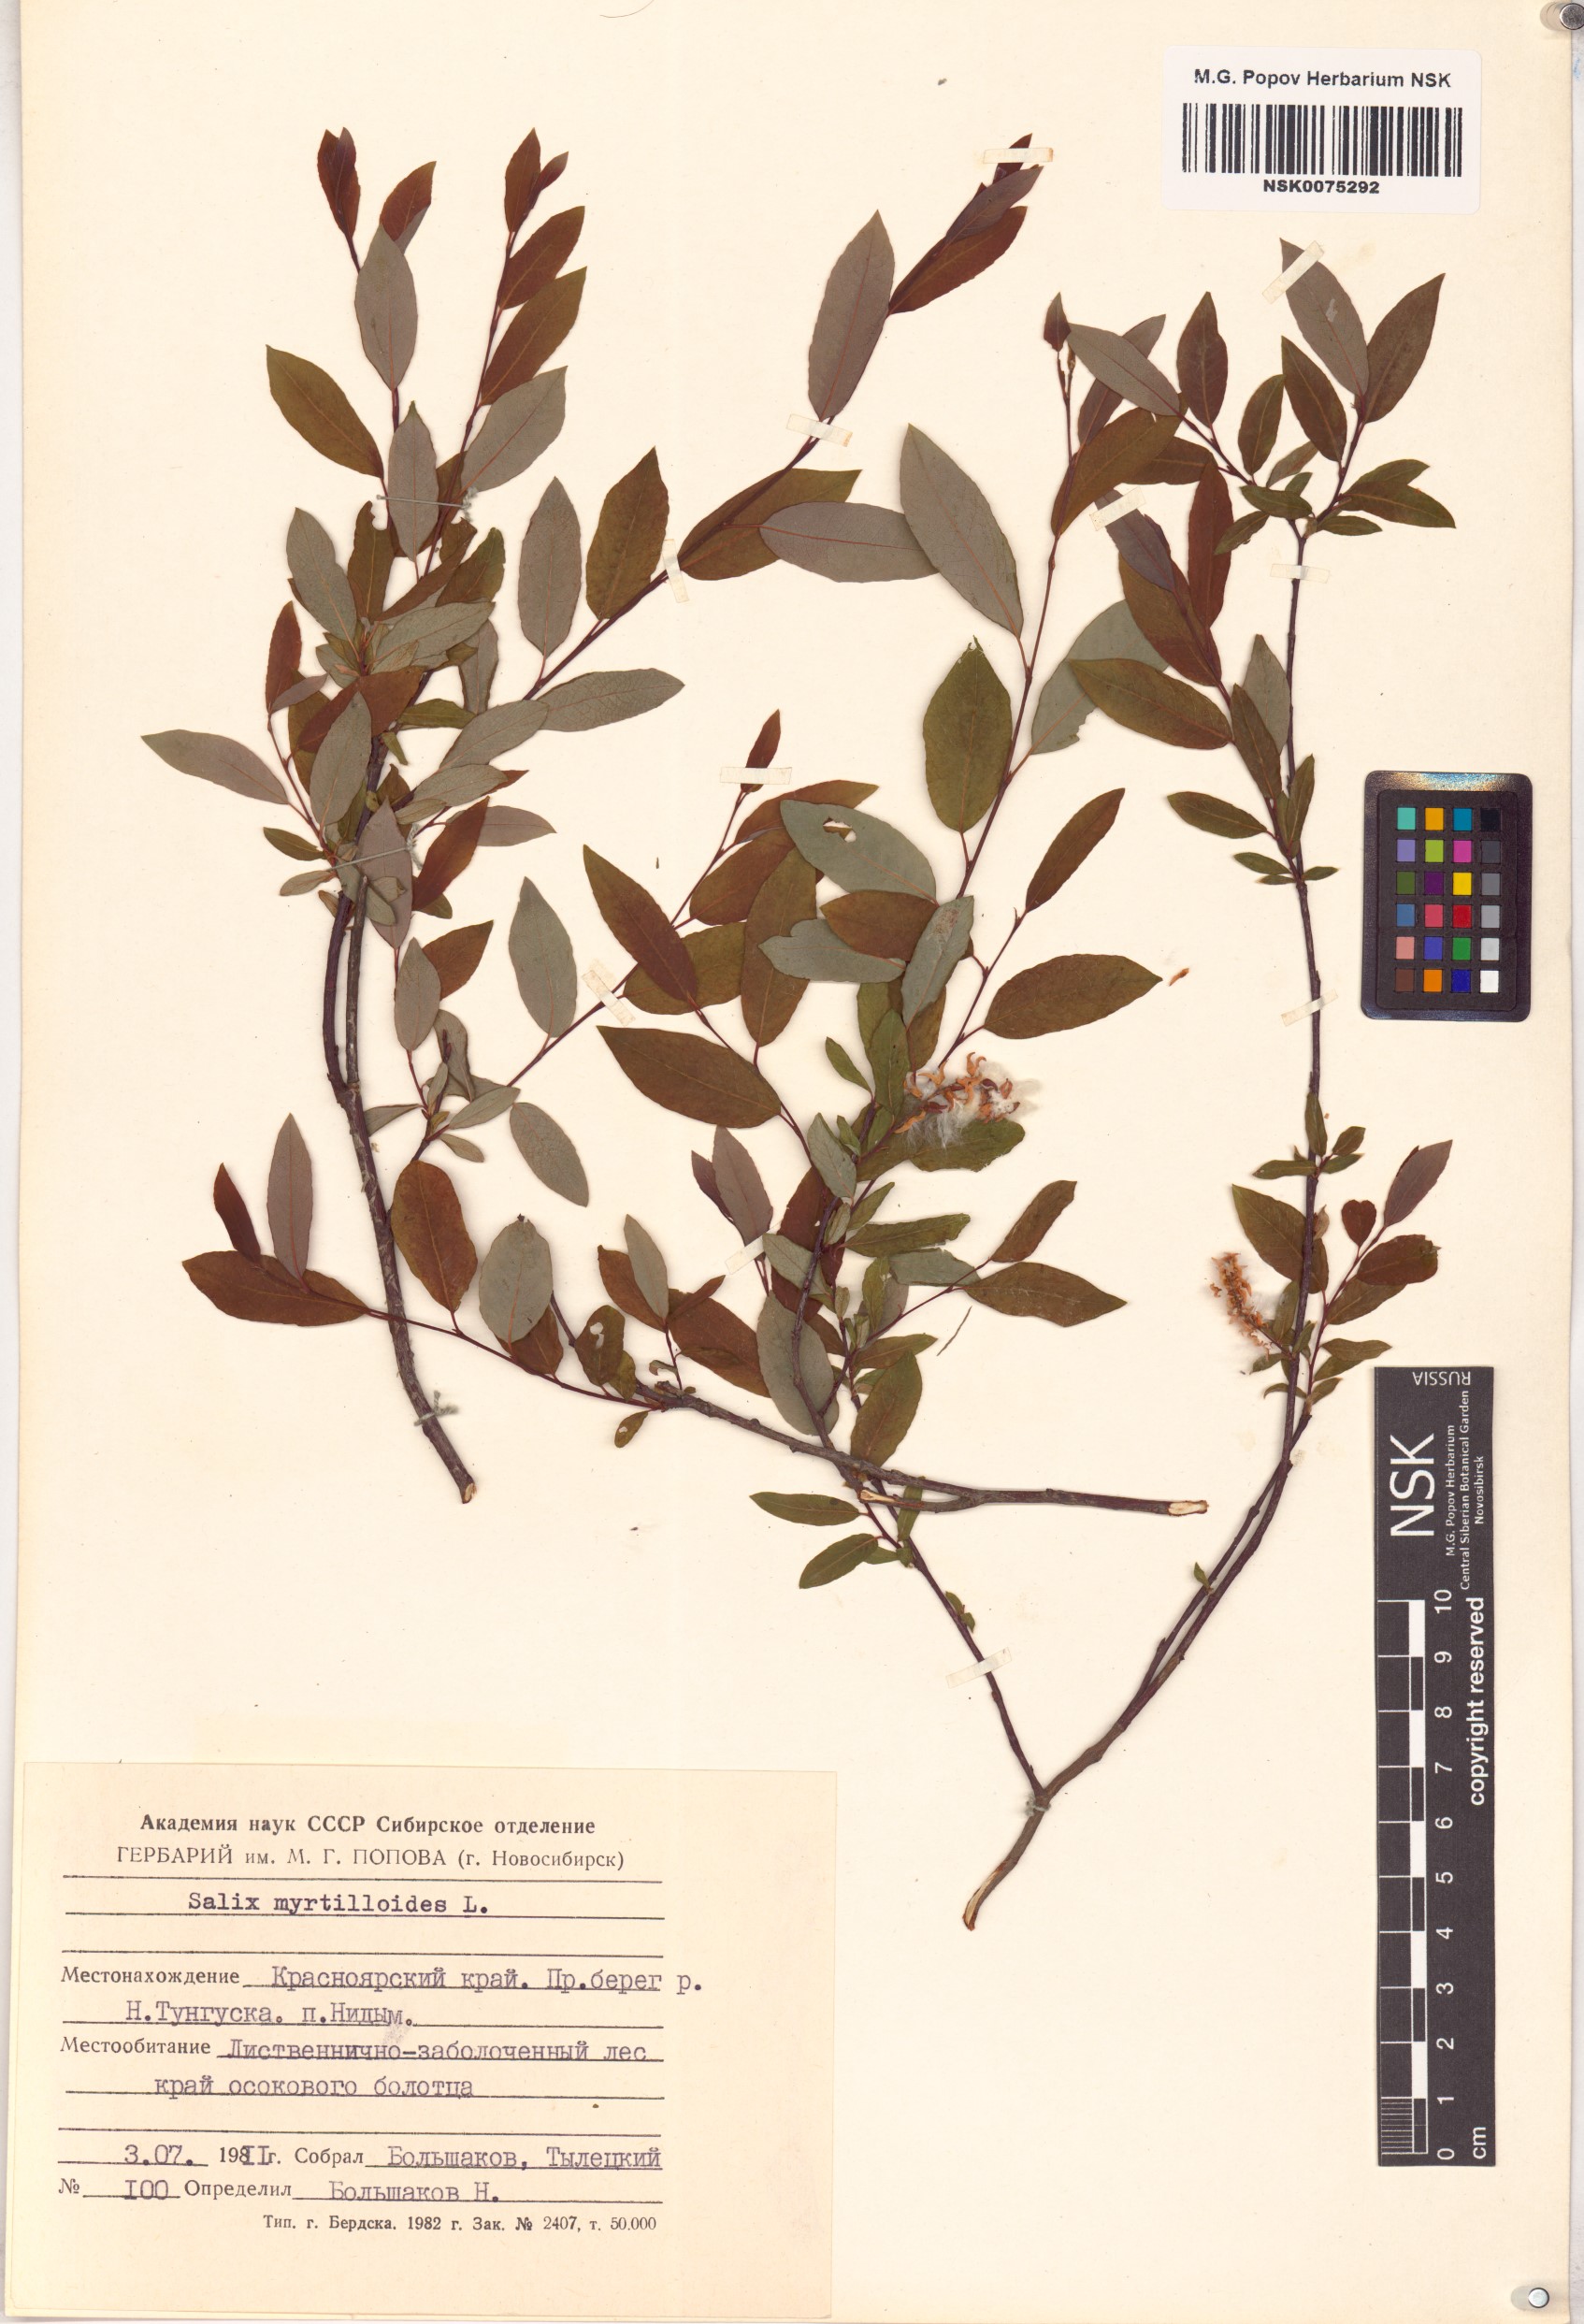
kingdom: Plantae
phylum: Tracheophyta
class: Magnoliopsida
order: Malpighiales
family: Salicaceae
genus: Salix
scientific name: Salix myrtilloides
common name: Myrtle-leaved willow
